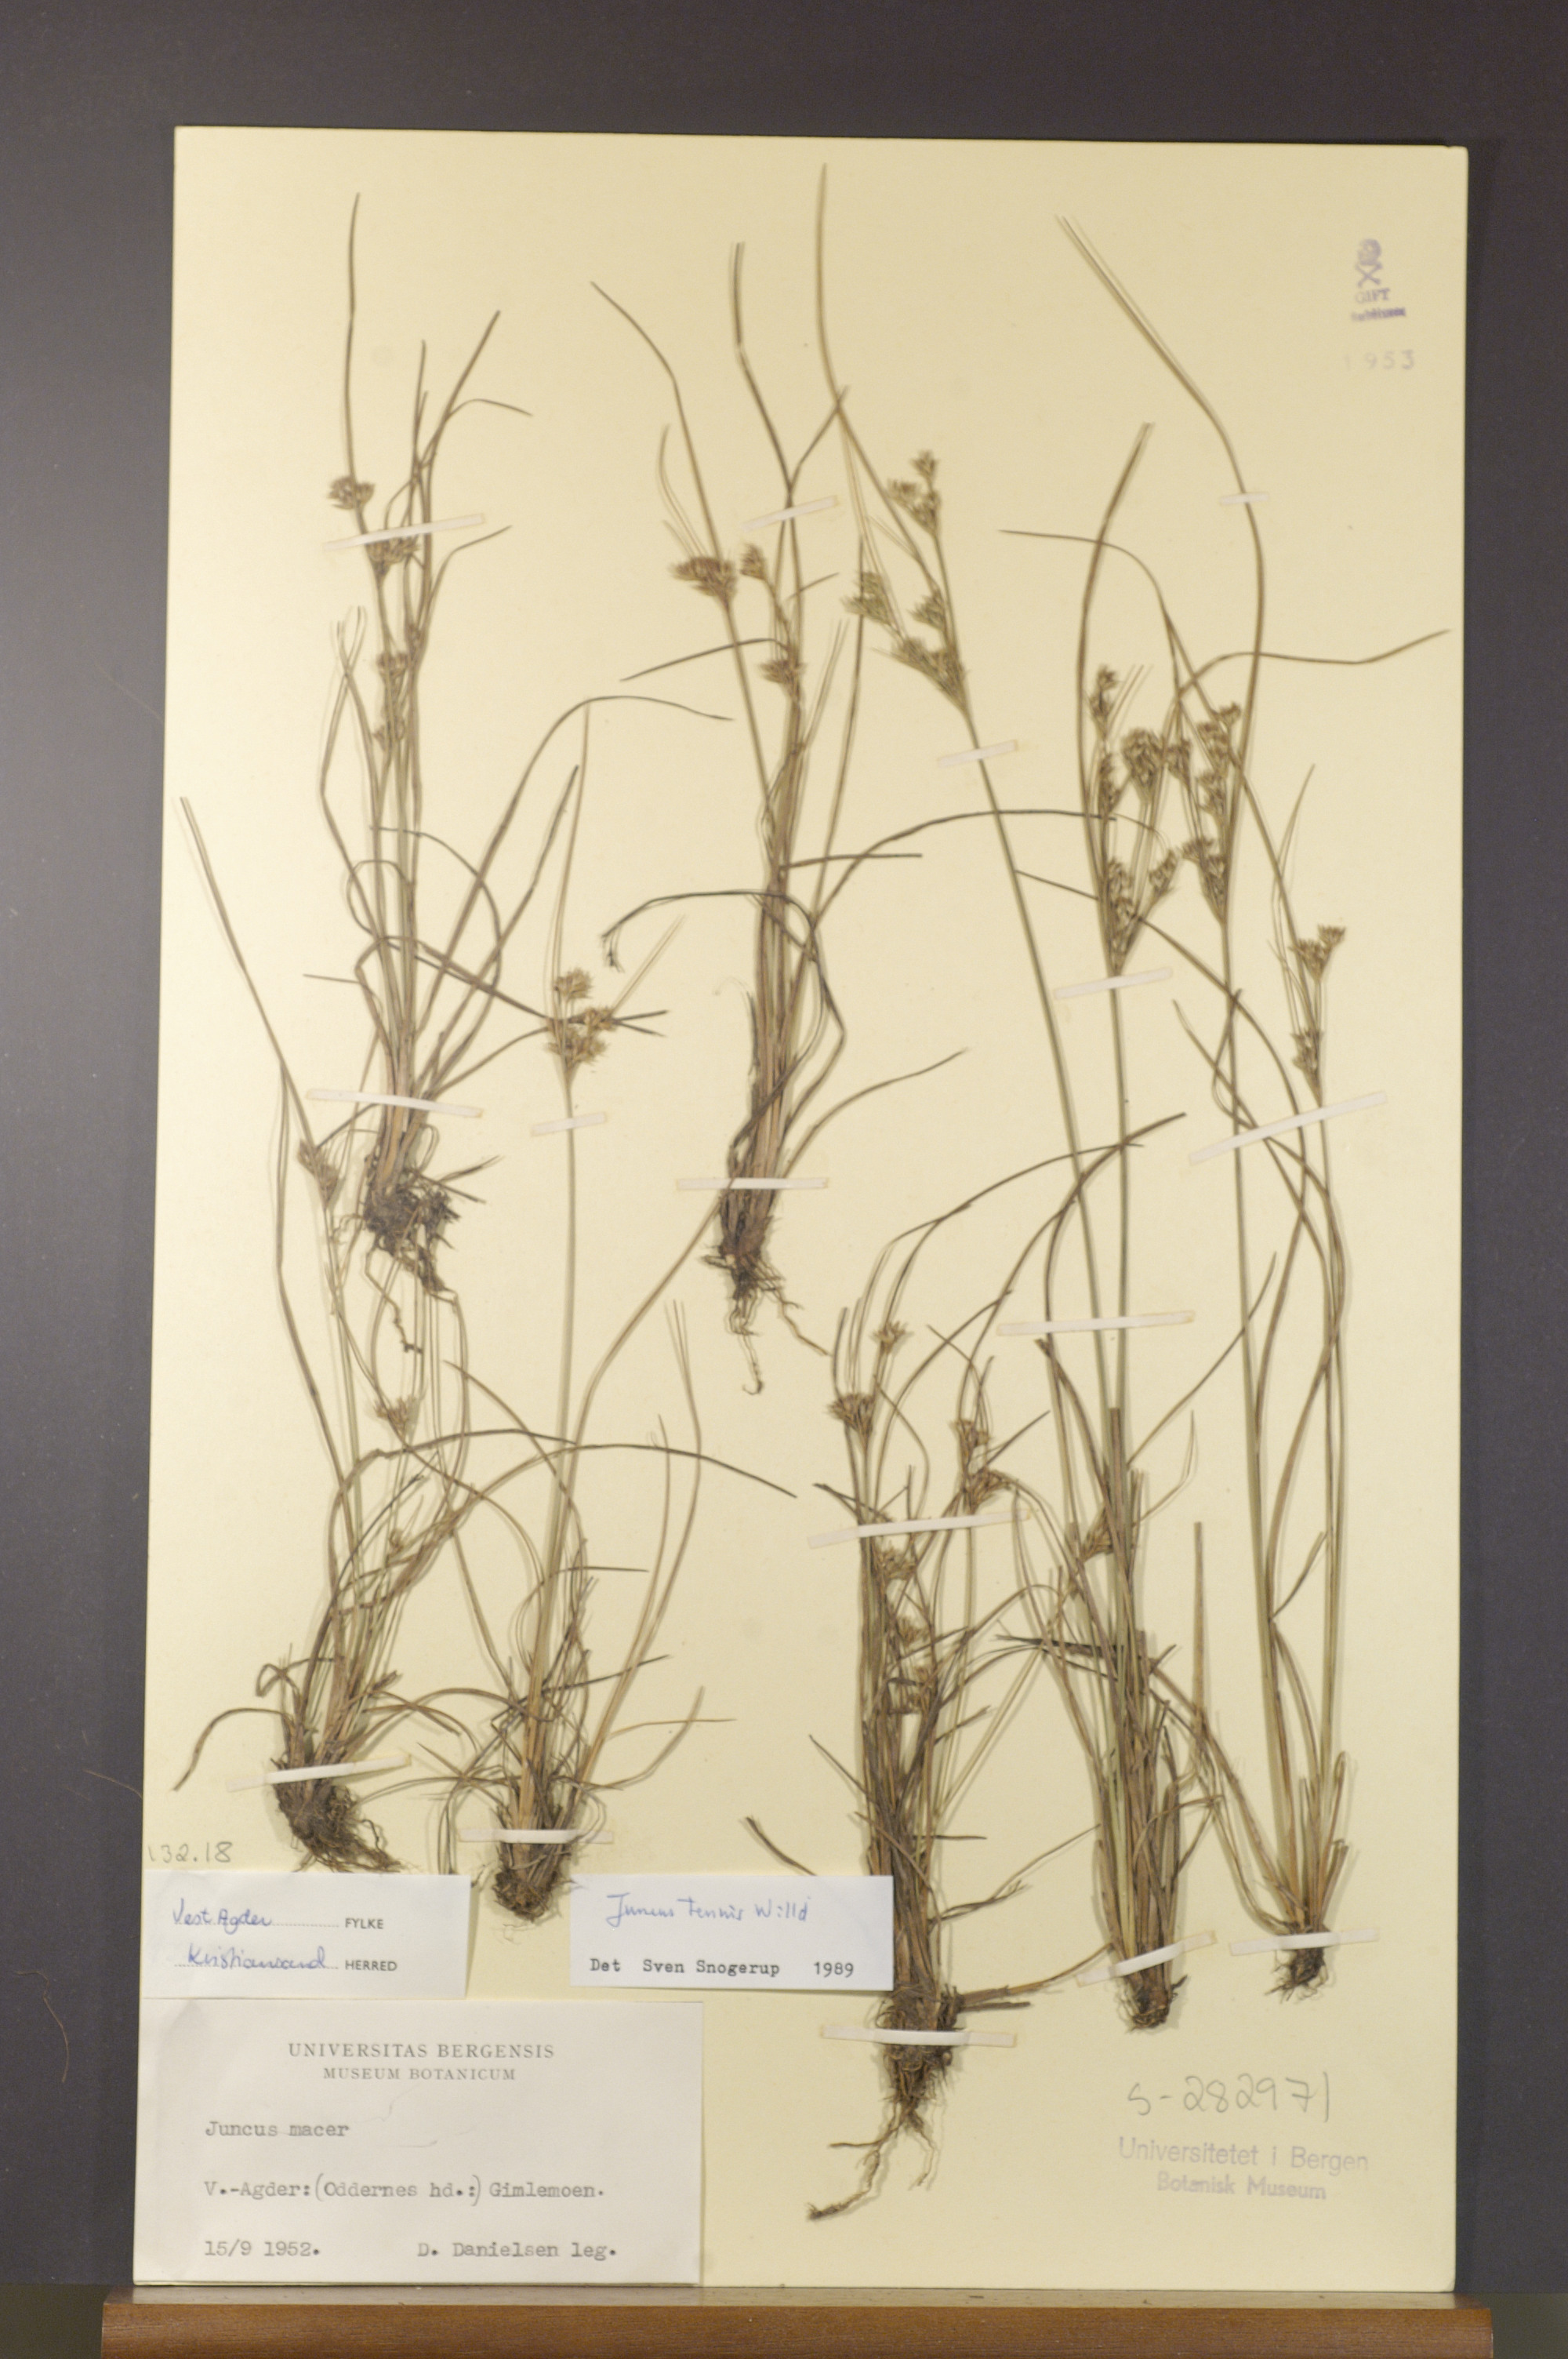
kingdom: Plantae
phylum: Tracheophyta
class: Liliopsida
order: Poales
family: Juncaceae
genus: Juncus
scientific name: Juncus tenuis
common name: Slender rush
